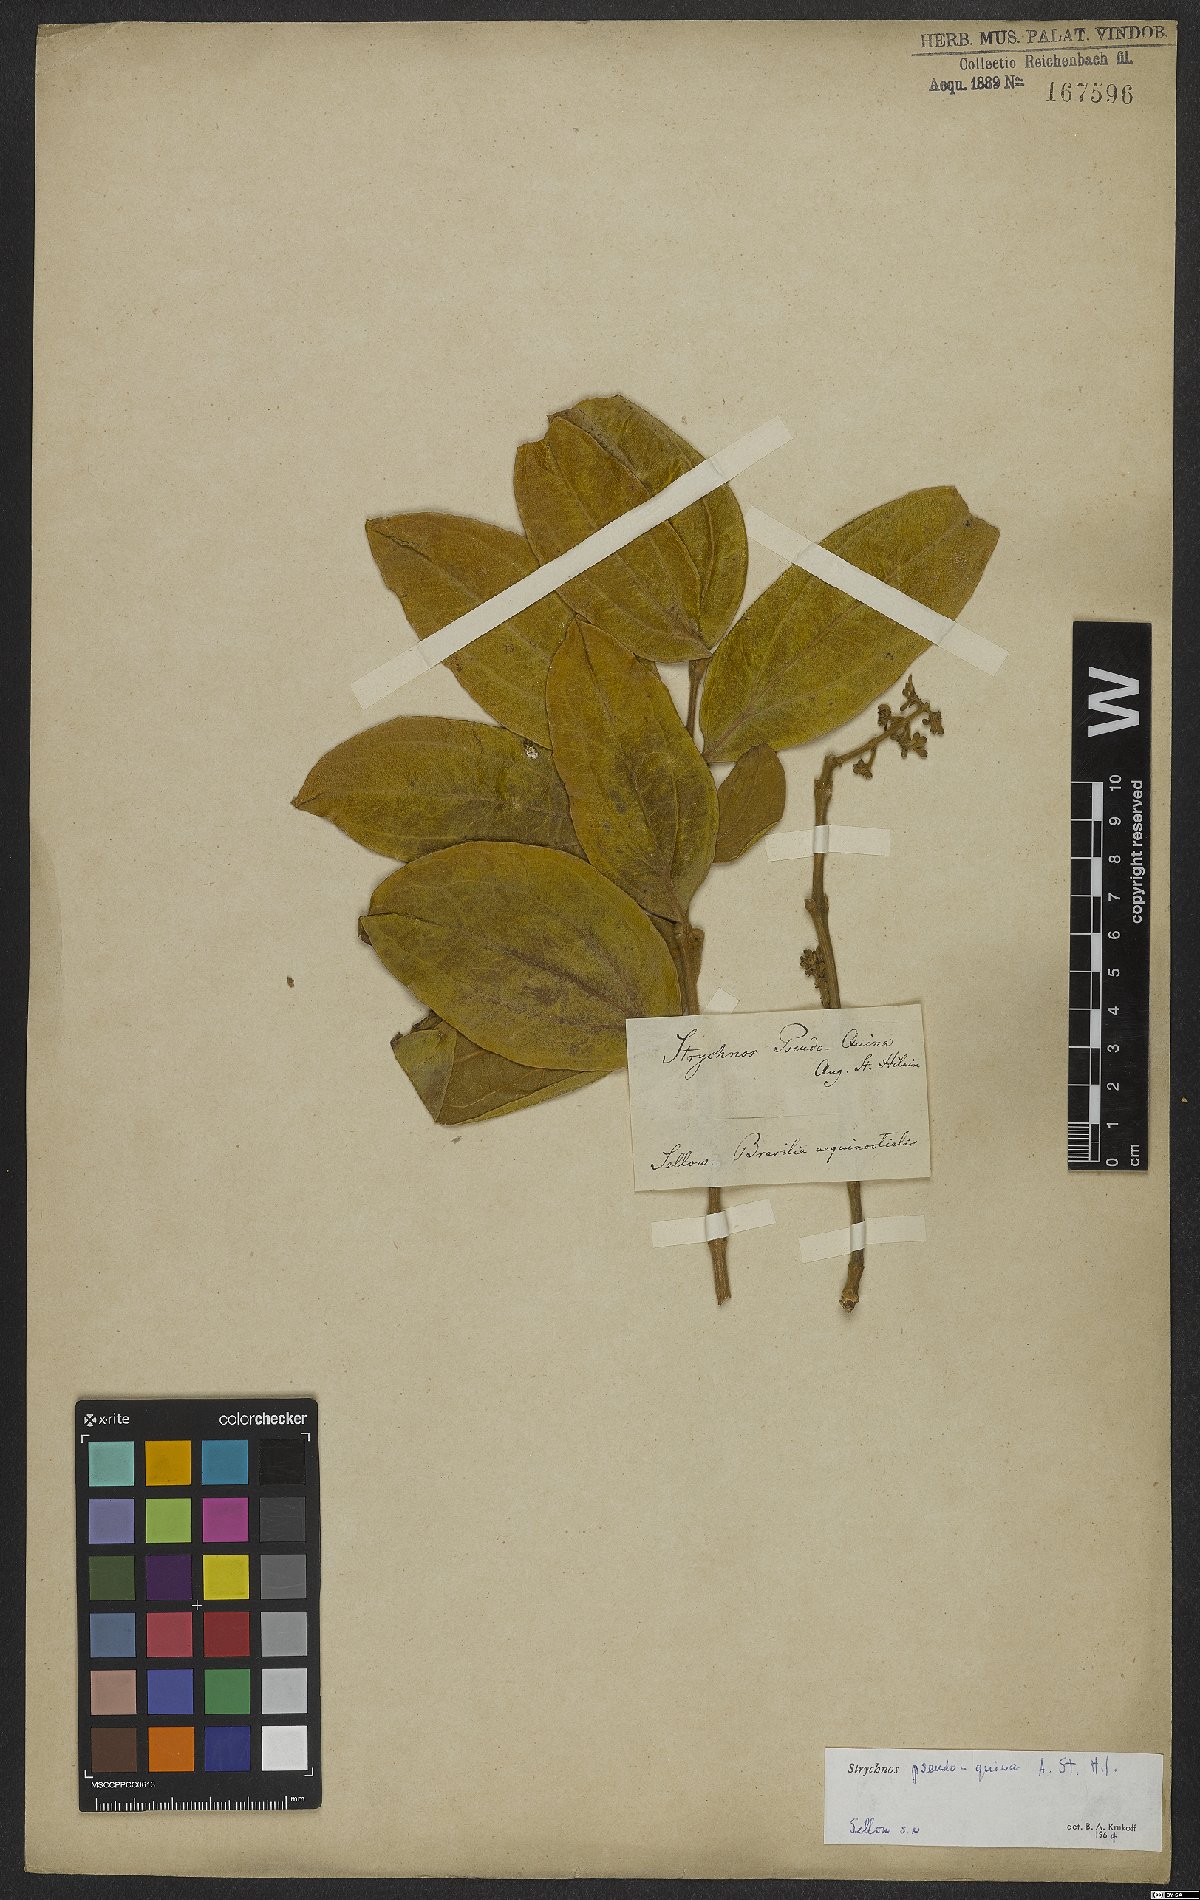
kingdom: Plantae
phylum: Tracheophyta
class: Magnoliopsida
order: Gentianales
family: Loganiaceae
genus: Strychnos
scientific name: Strychnos pseudoquina
